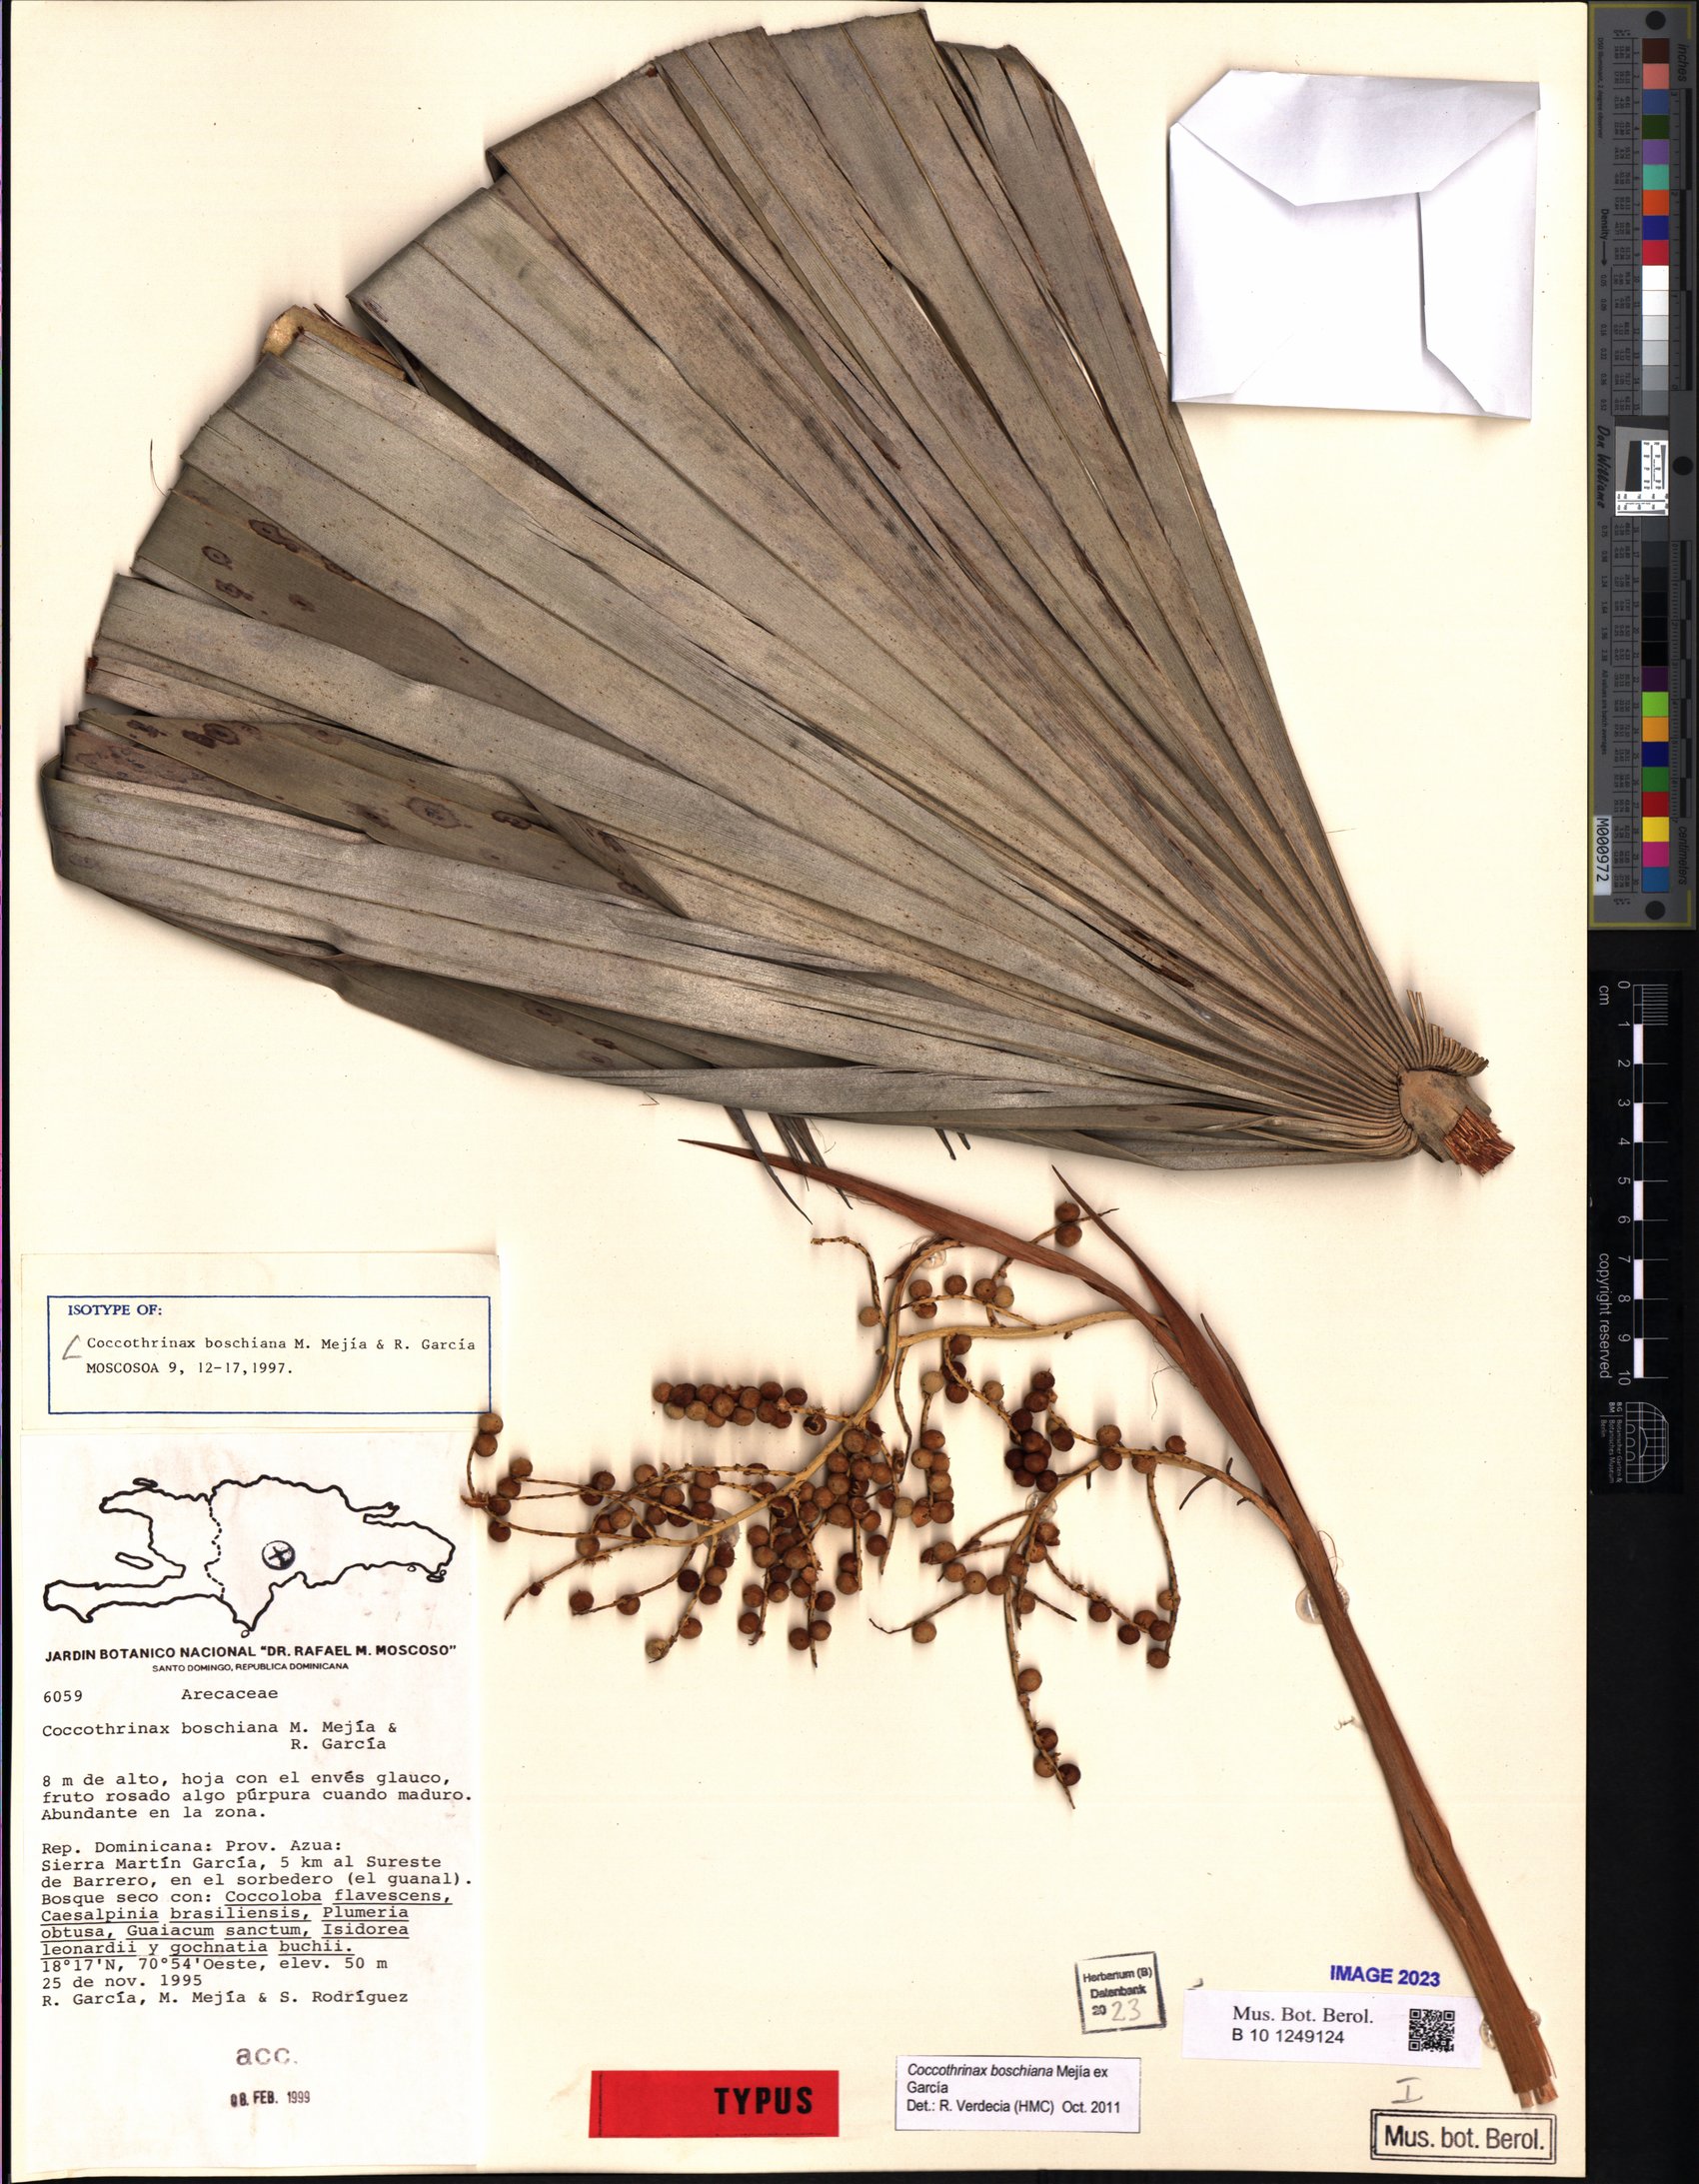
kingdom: Plantae
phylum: Tracheophyta
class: Liliopsida
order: Arecales
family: Arecaceae
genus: Coccothrinax
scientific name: Coccothrinax boschiana
